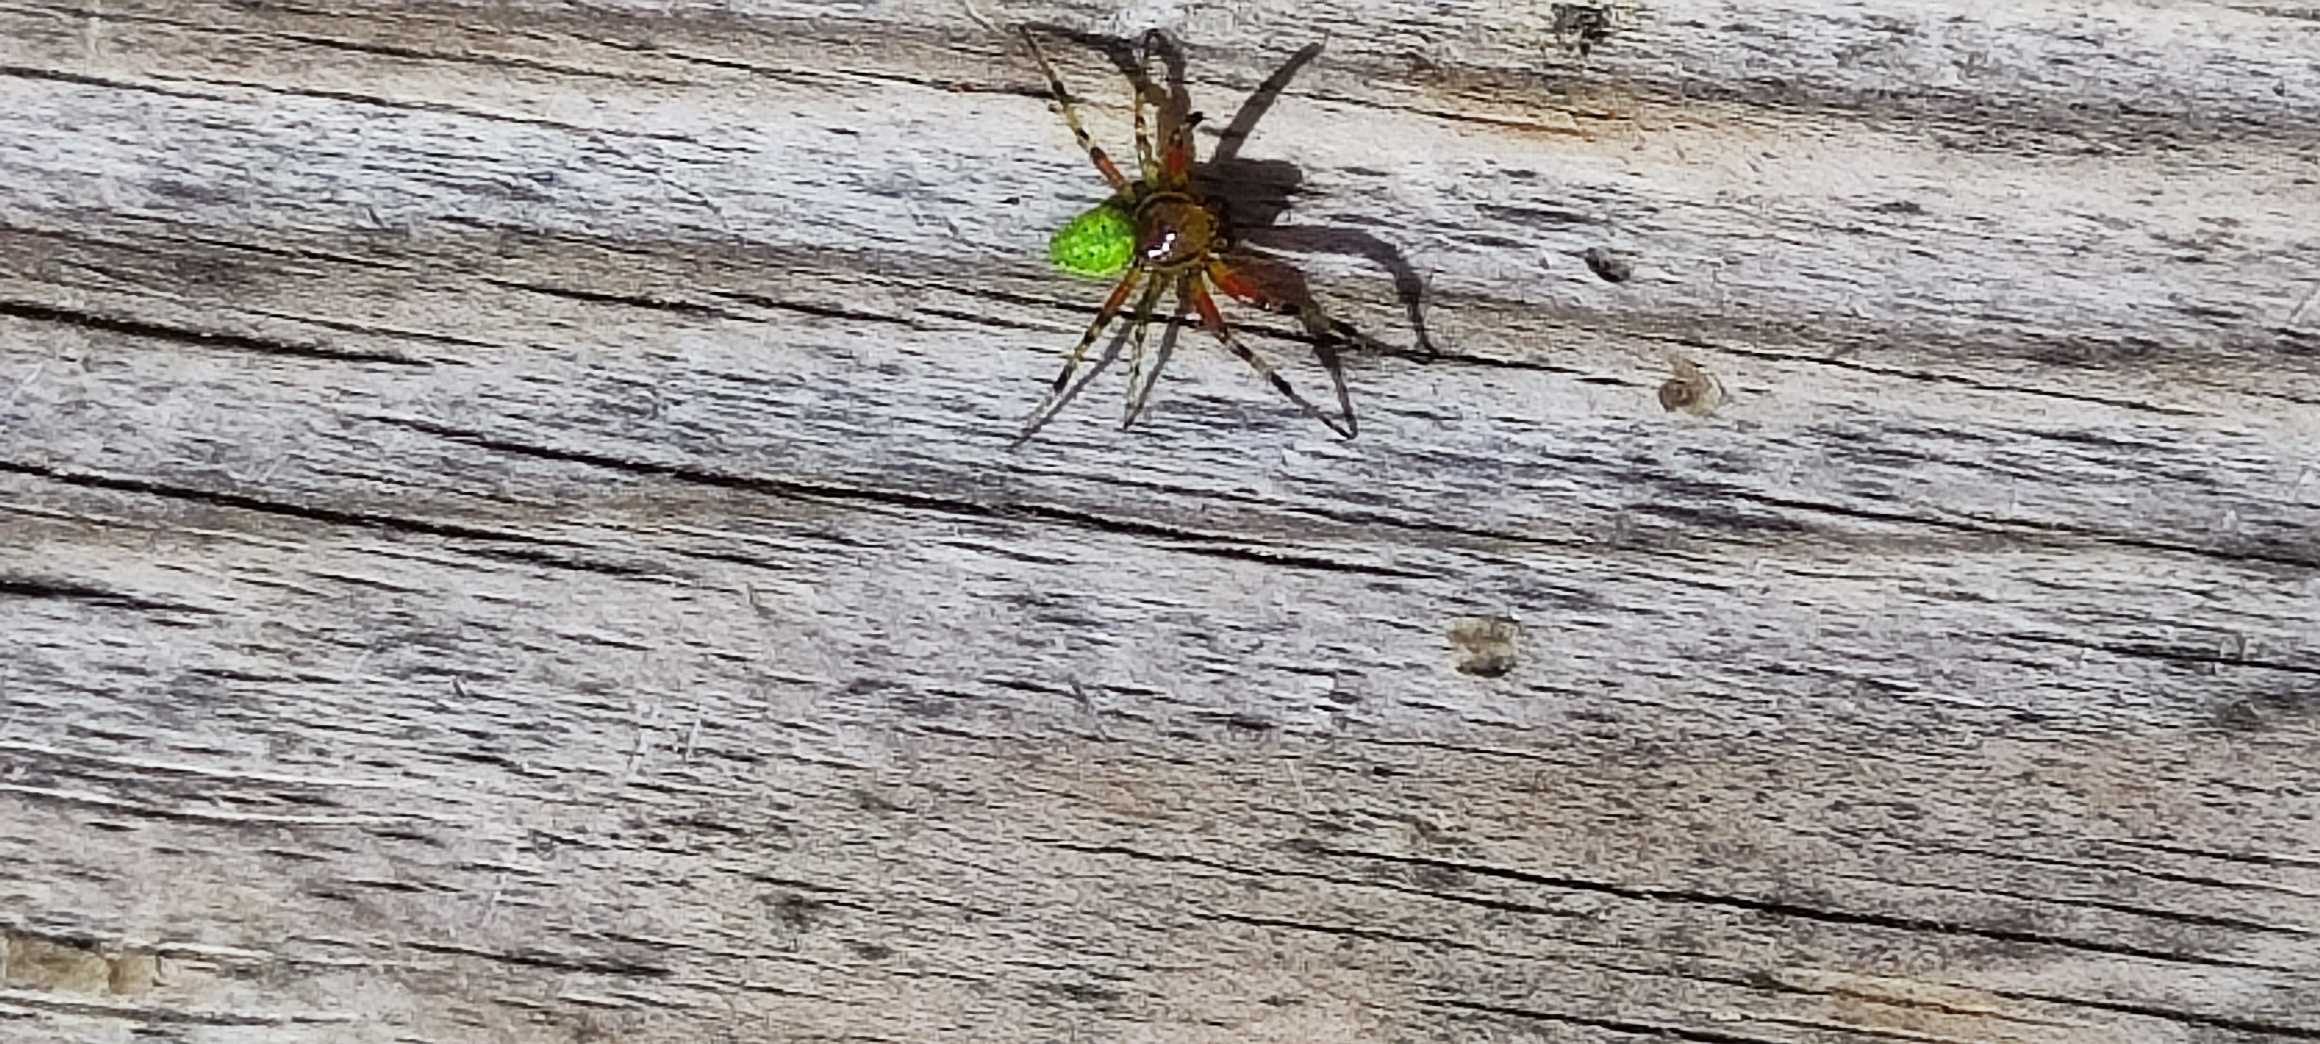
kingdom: Animalia
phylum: Arthropoda
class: Arachnida
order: Araneae
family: Araneidae
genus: Araniella
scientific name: Araniella
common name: Agurkeedderkopslægten
